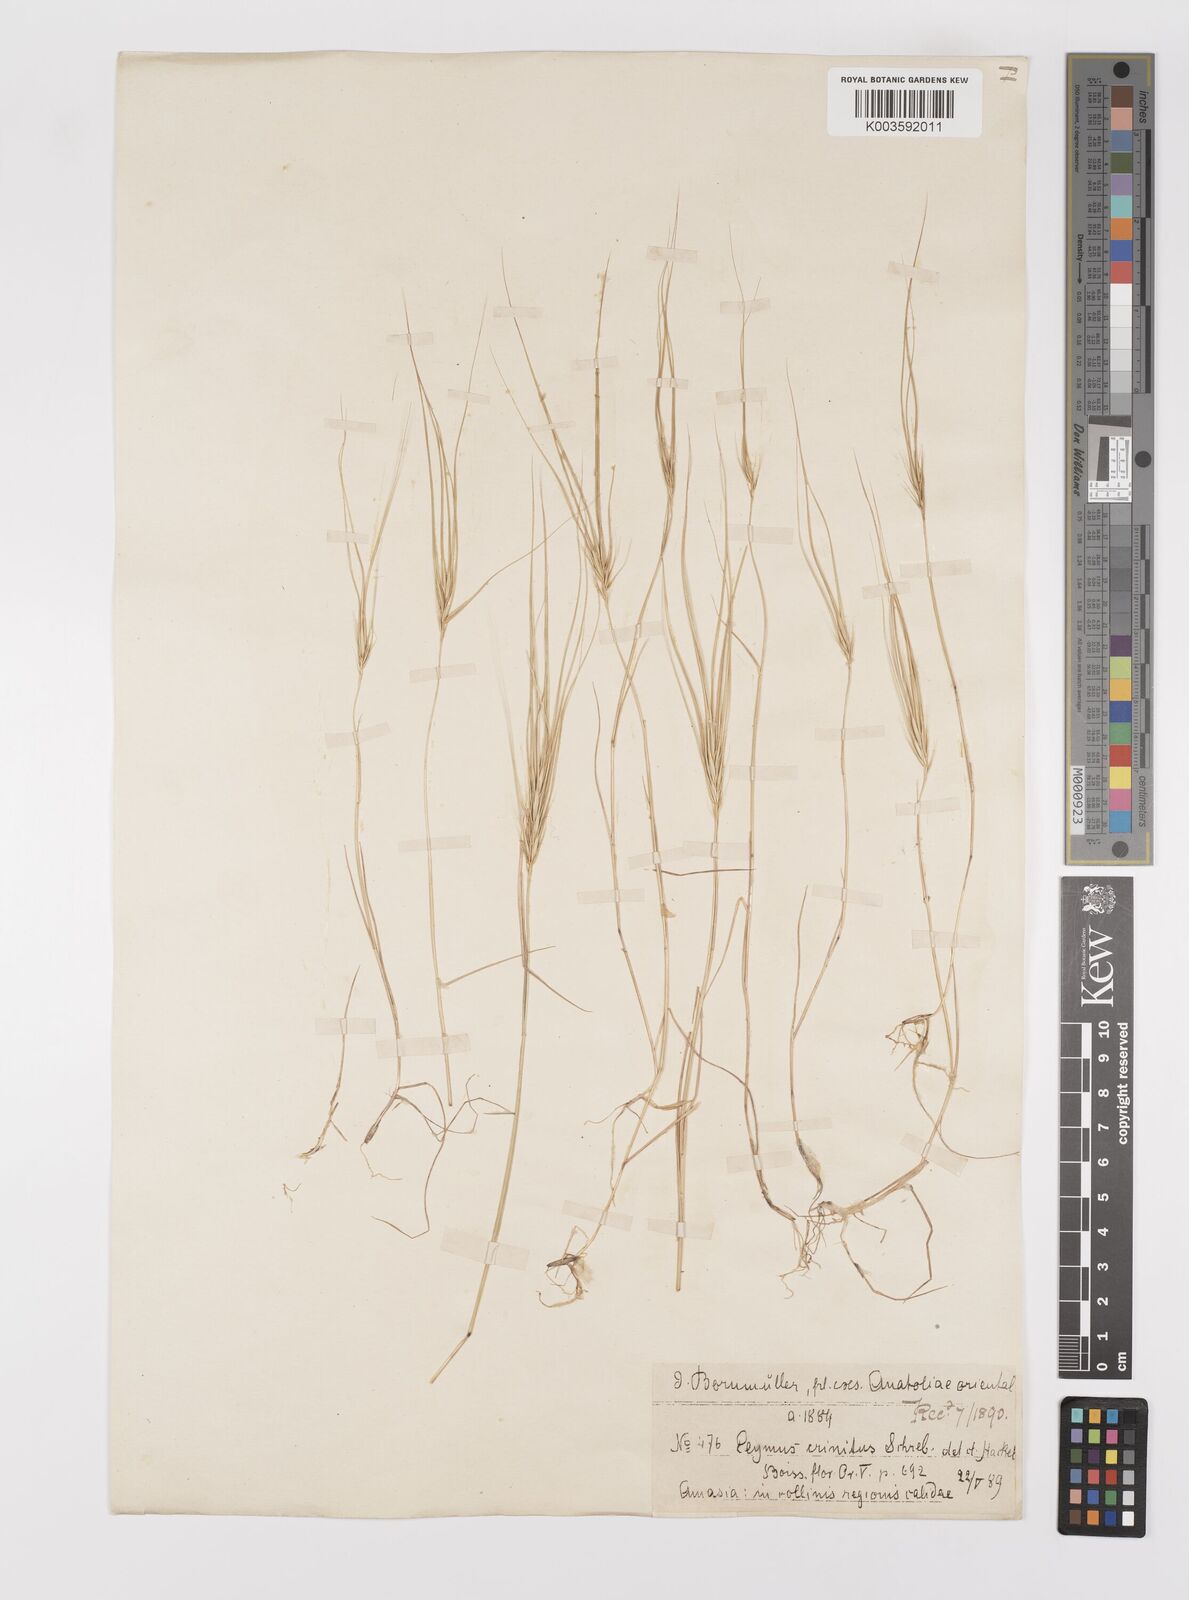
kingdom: Plantae
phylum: Tracheophyta
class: Liliopsida
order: Poales
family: Poaceae
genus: Taeniatherum
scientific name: Taeniatherum caput-medusae
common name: Medusahead
